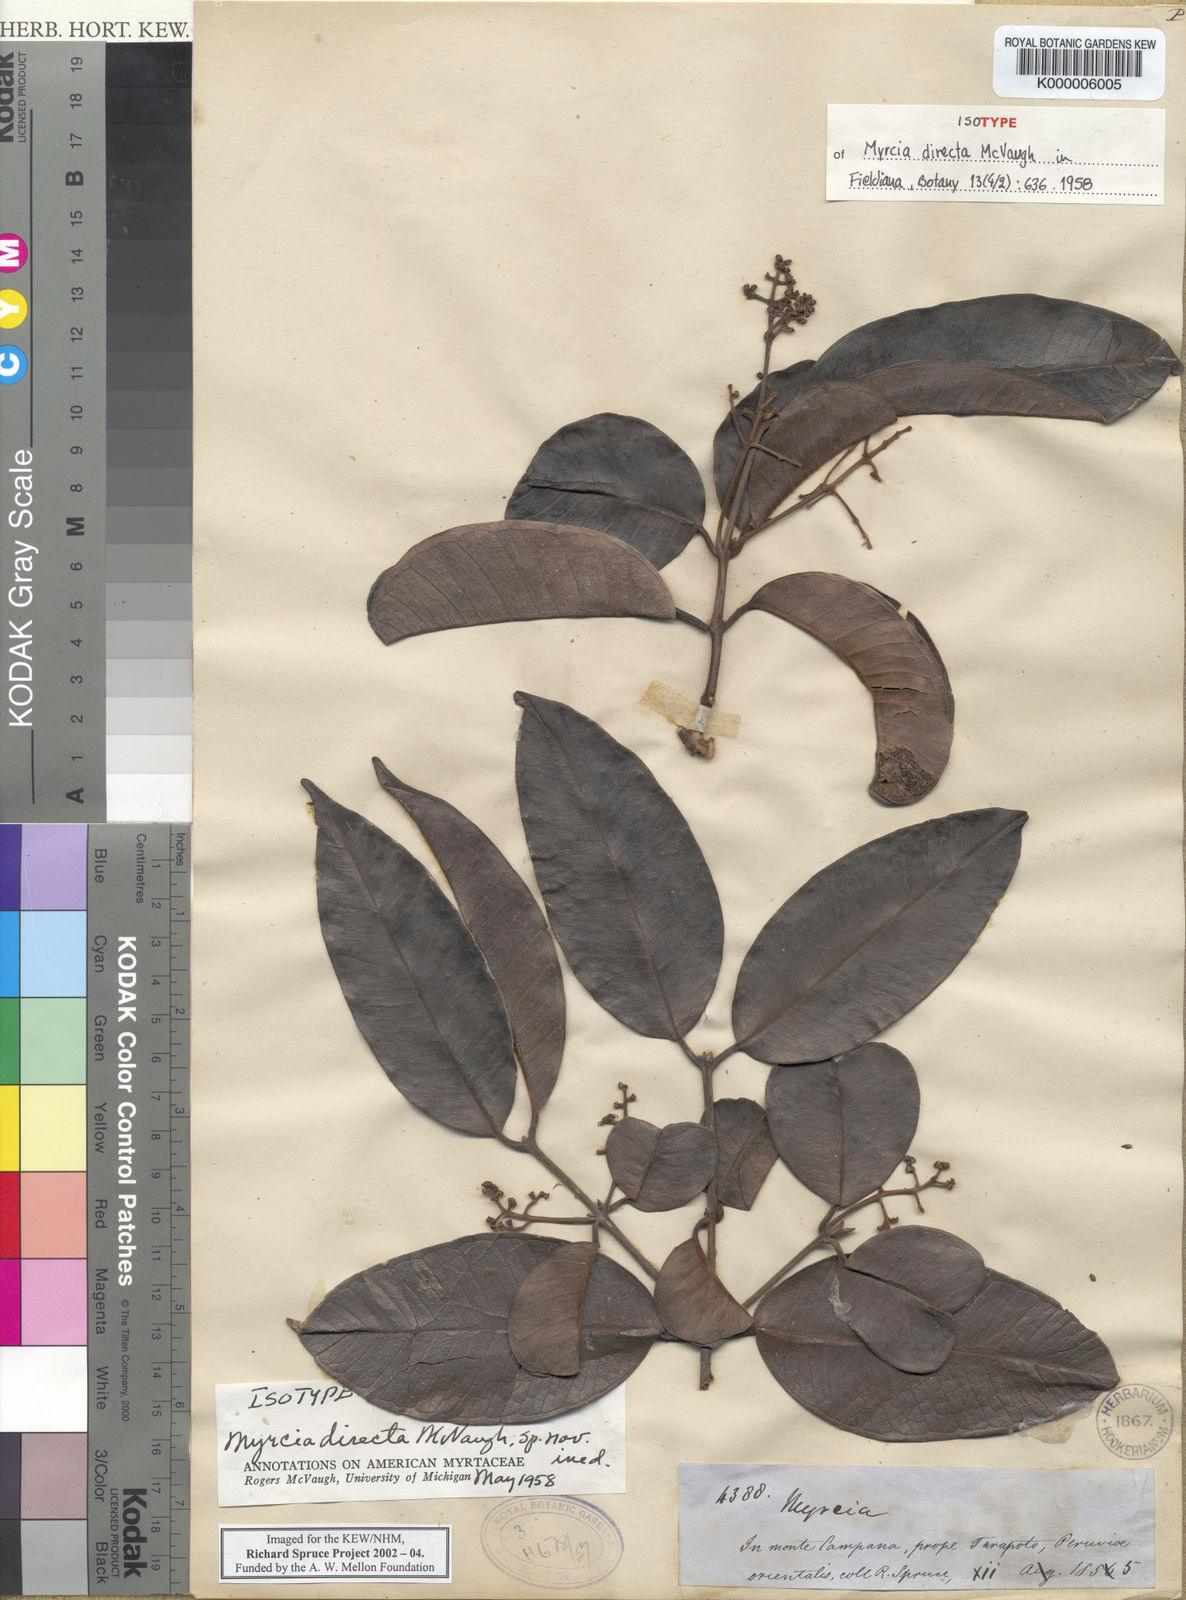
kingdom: Plantae
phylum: Tracheophyta
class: Magnoliopsida
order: Myrtales
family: Myrtaceae
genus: Myrcia
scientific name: Myrcia directa
